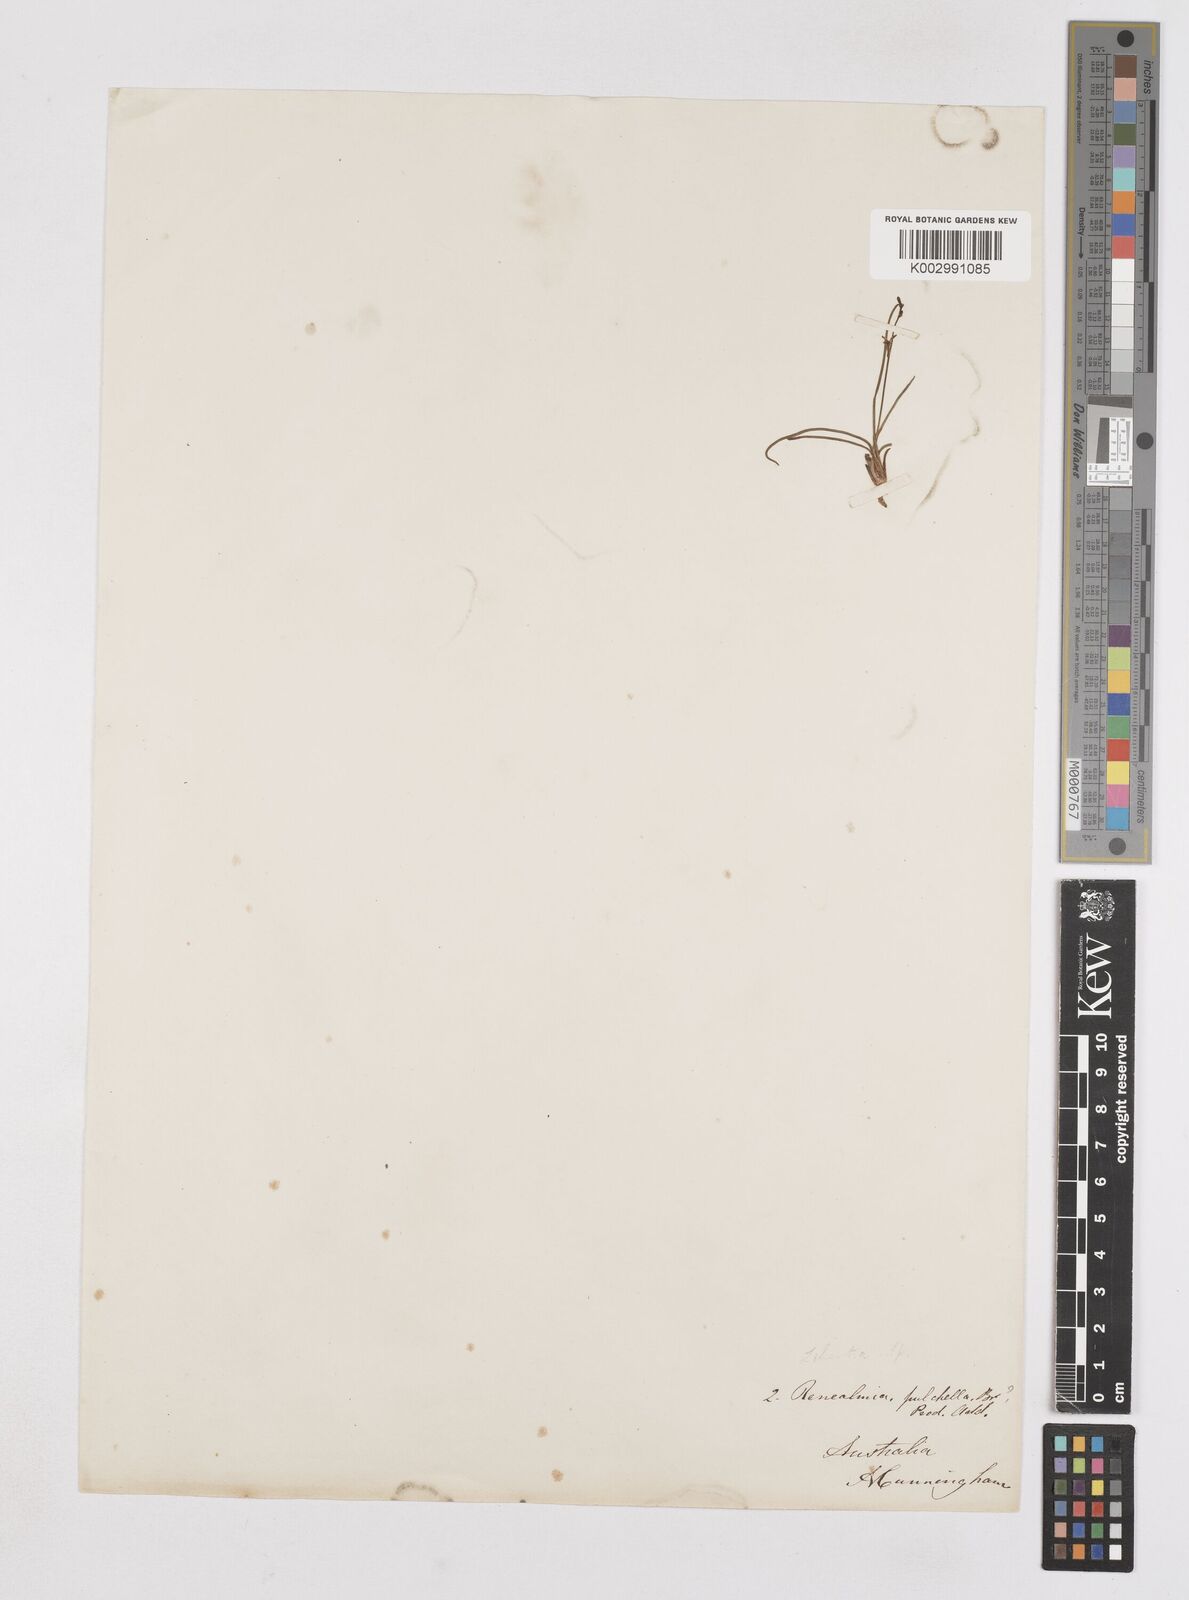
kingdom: Plantae
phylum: Tracheophyta
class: Liliopsida
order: Asparagales
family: Iridaceae
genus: Libertia
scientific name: Libertia pulchella
